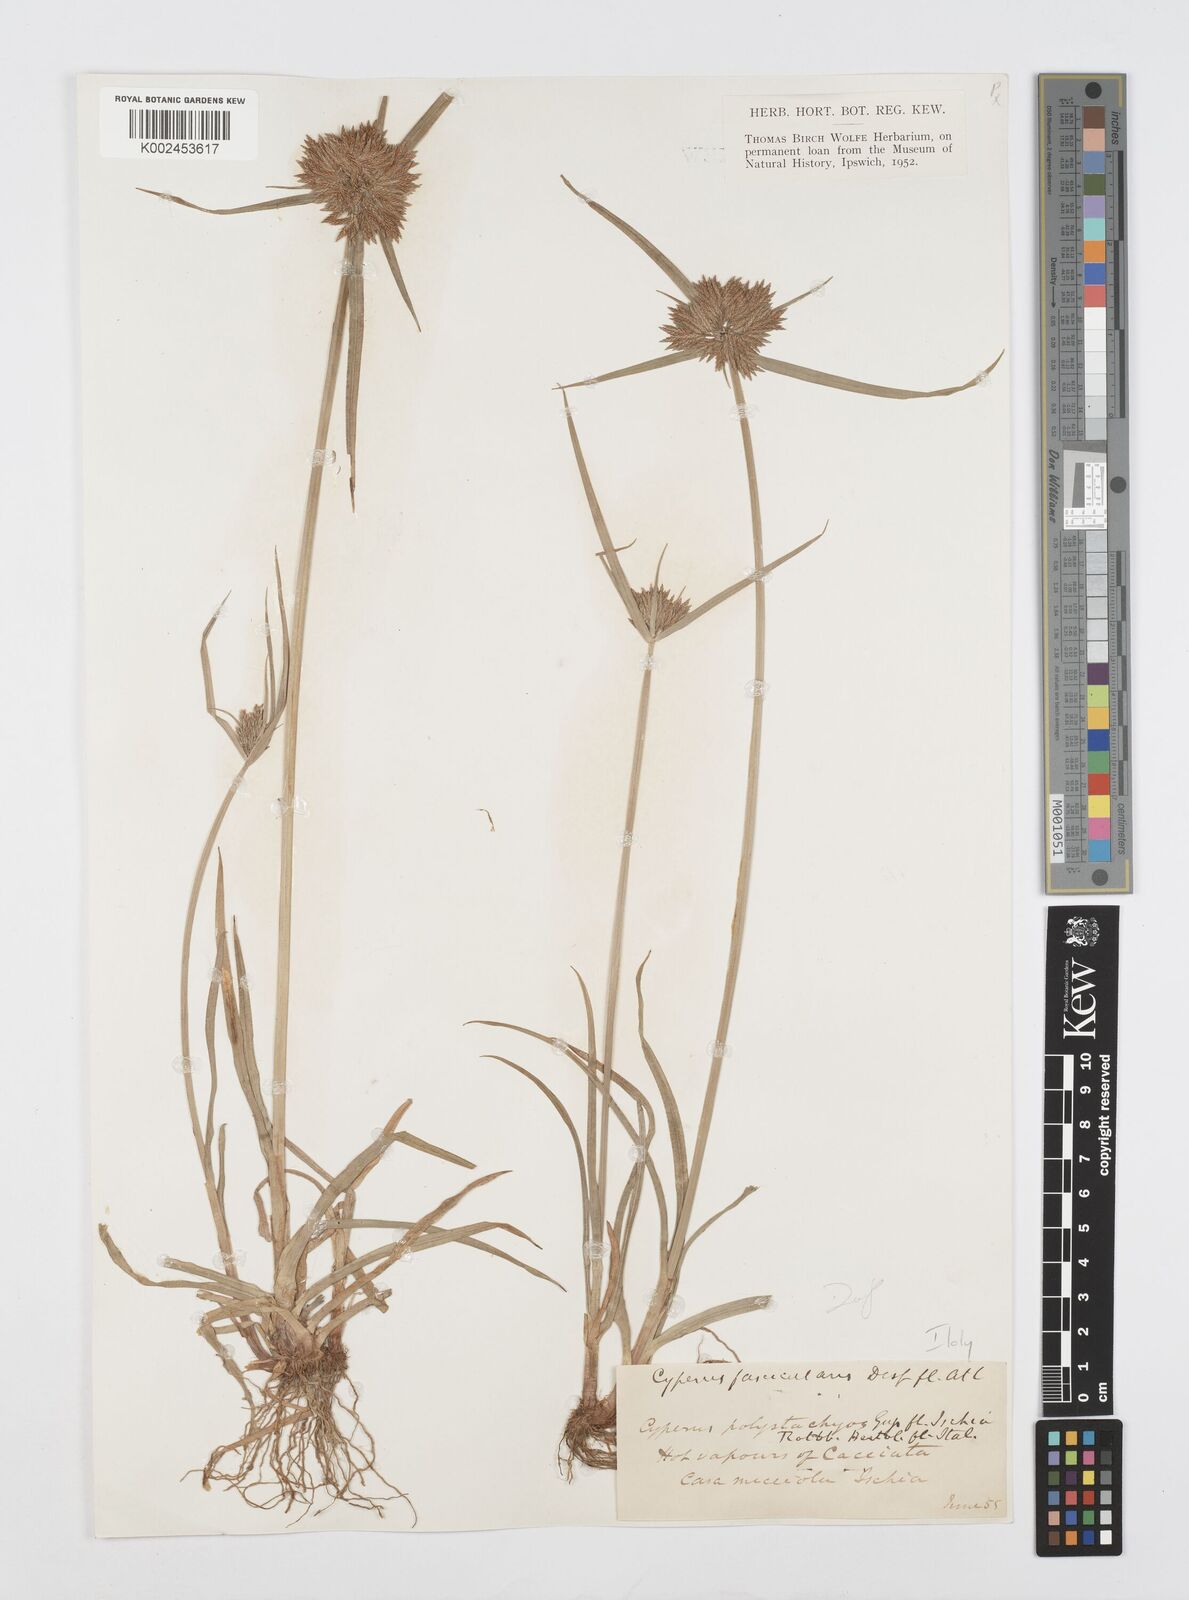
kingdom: Plantae
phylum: Tracheophyta
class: Liliopsida
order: Poales
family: Cyperaceae
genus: Cyperus
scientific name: Cyperus polystachyos
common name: Bunchy flat sedge
